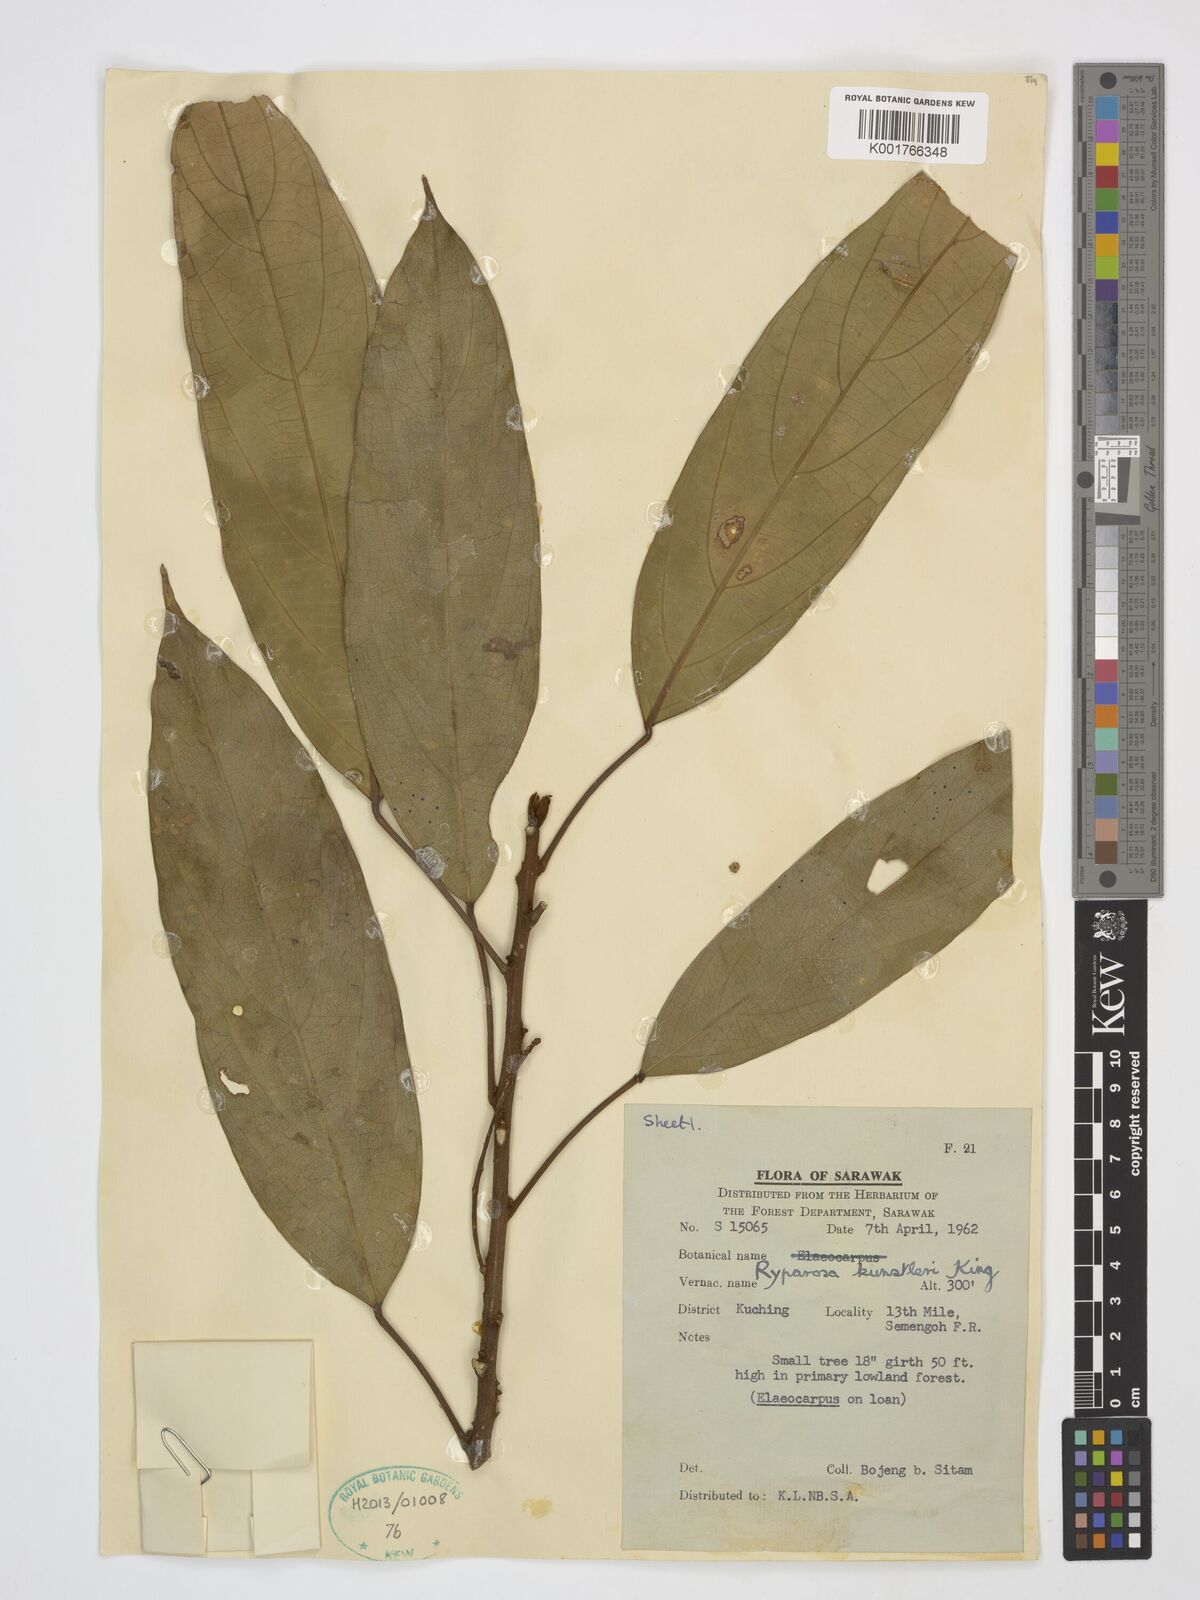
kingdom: Plantae
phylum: Tracheophyta
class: Magnoliopsida
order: Malpighiales
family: Achariaceae
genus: Ryparosa
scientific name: Ryparosa kunstleri
